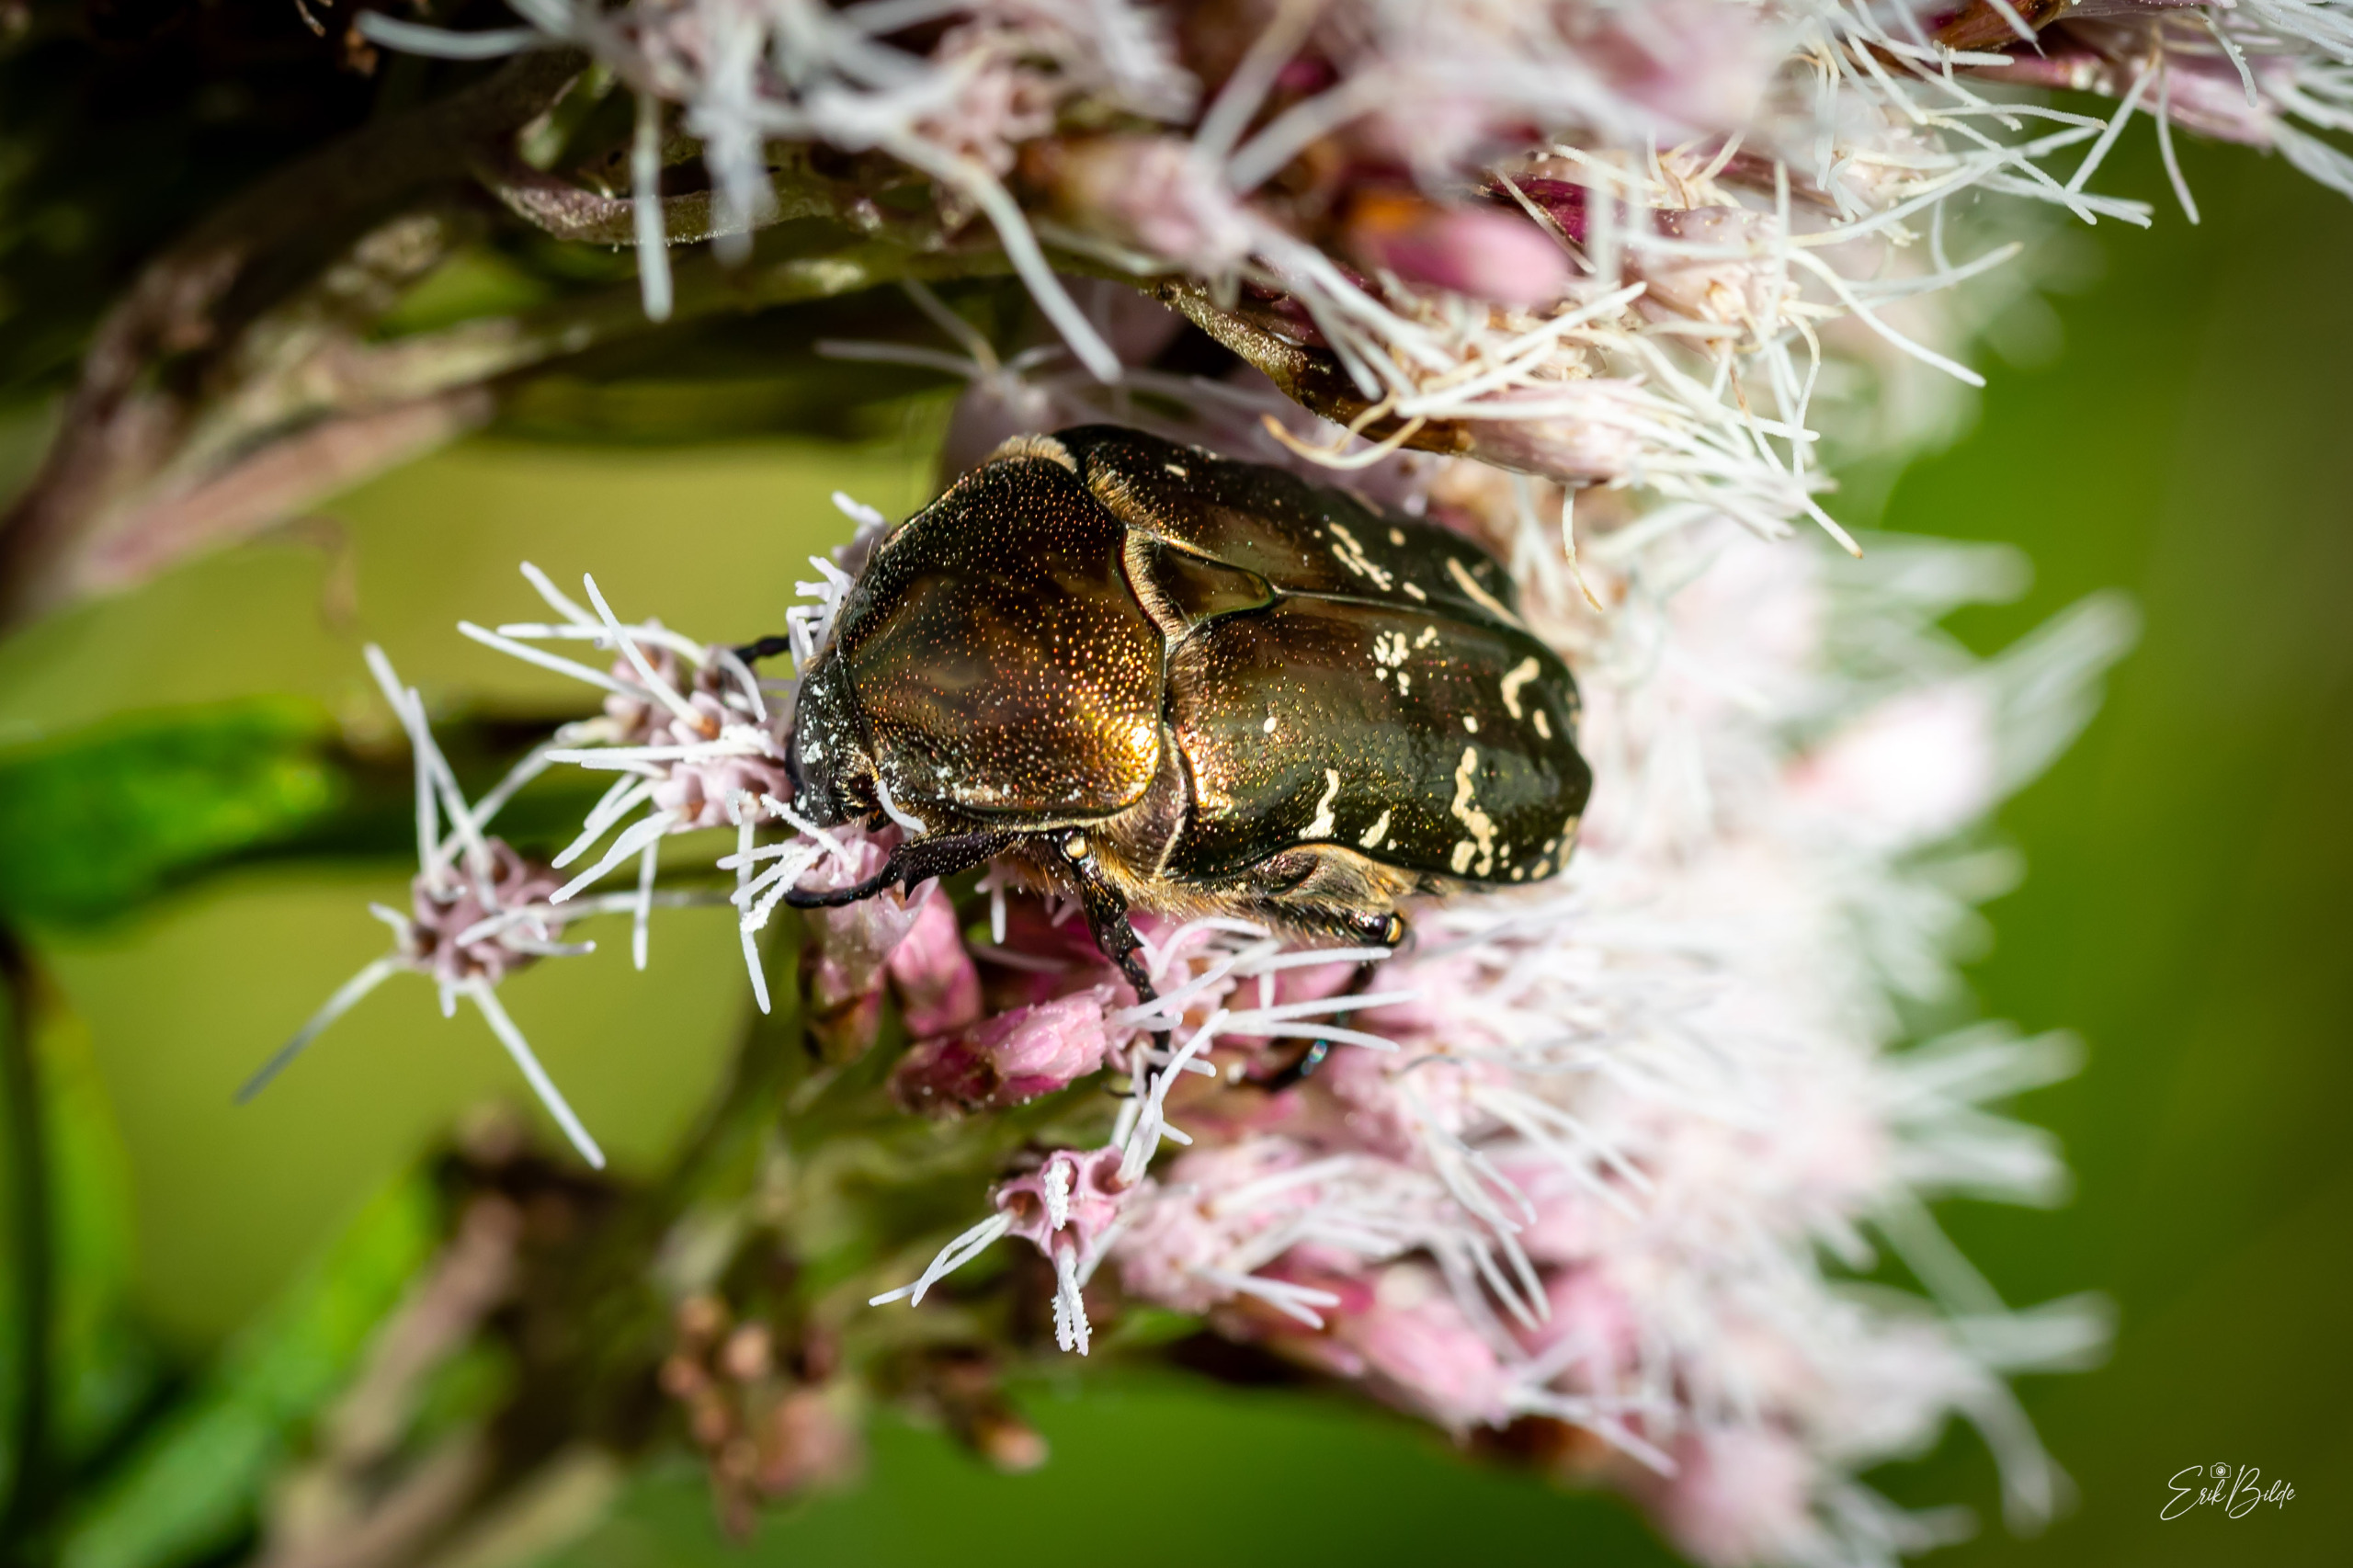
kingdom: Animalia
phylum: Arthropoda
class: Insecta
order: Coleoptera
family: Scarabaeidae
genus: Protaetia
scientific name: Protaetia cuprea
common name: Kobberguldbasse
